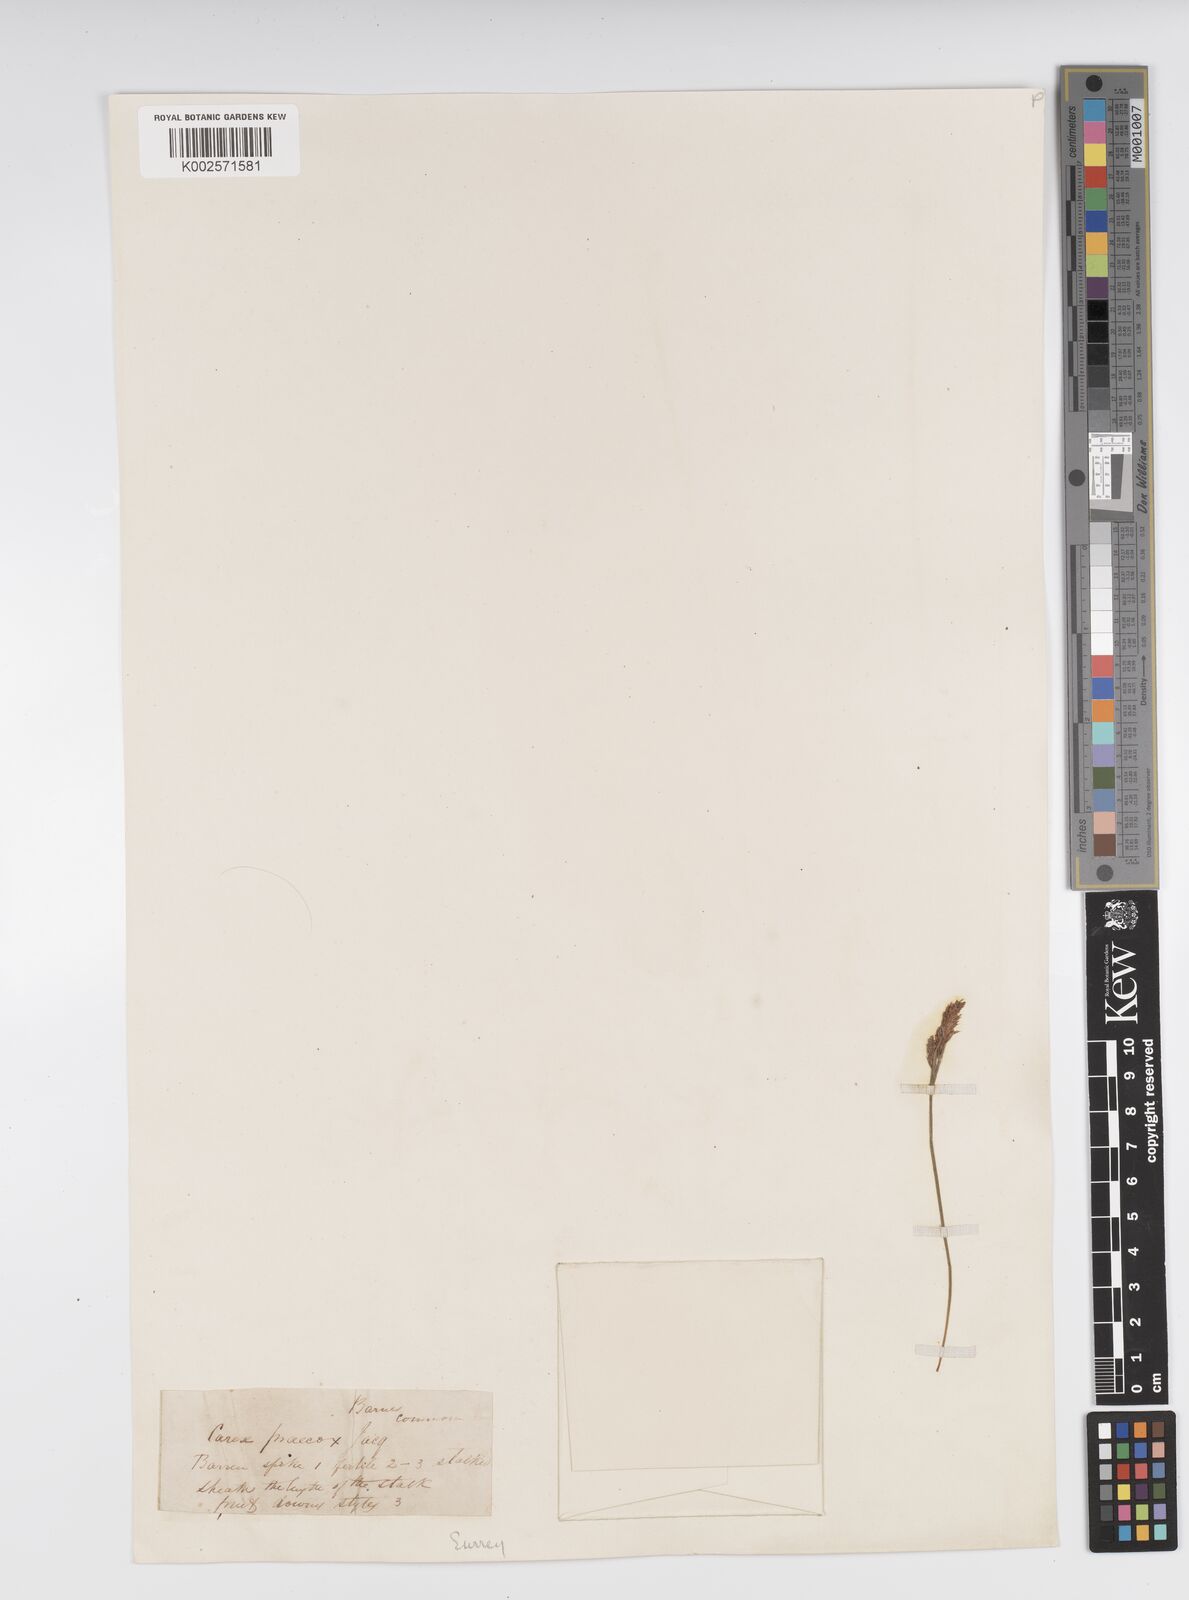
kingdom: Plantae
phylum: Tracheophyta
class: Liliopsida
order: Poales
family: Cyperaceae
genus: Carex
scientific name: Carex caryophyllea
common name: Spring sedge
